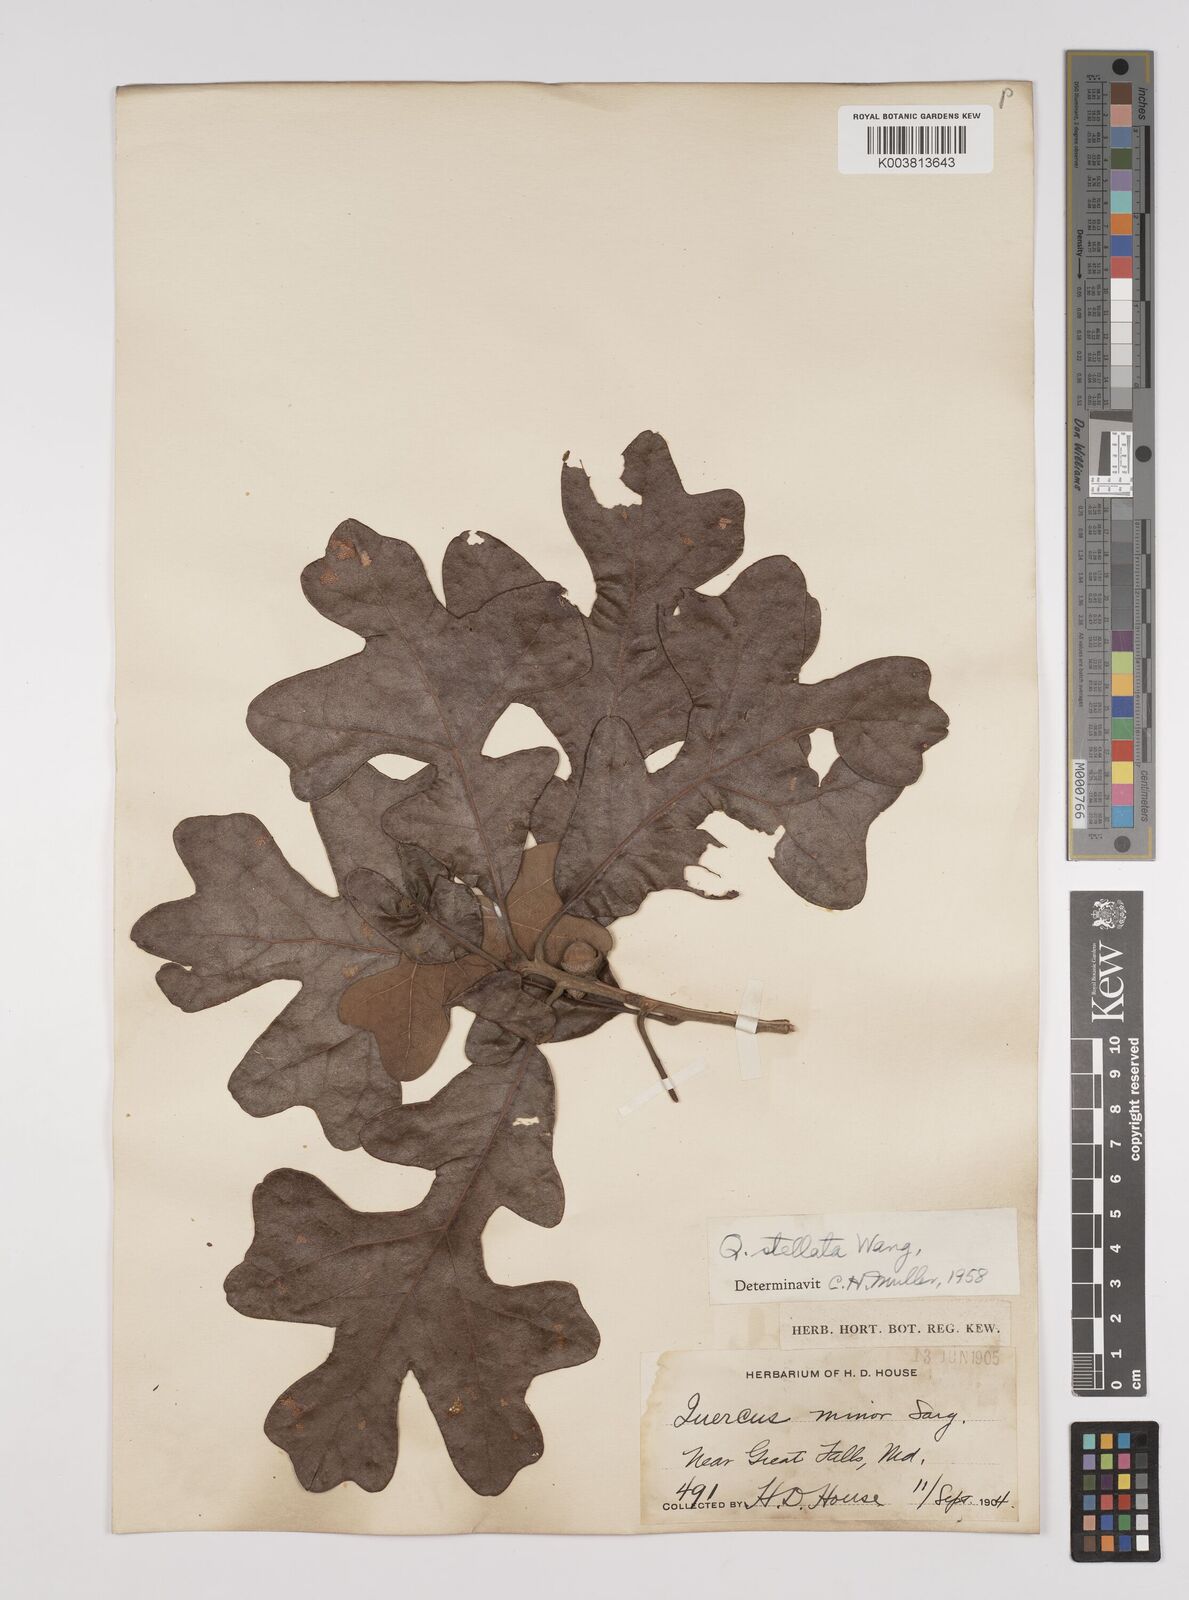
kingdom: Plantae
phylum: Tracheophyta
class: Magnoliopsida
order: Fagales
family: Fagaceae
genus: Quercus
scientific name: Quercus stellata
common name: Post oak
